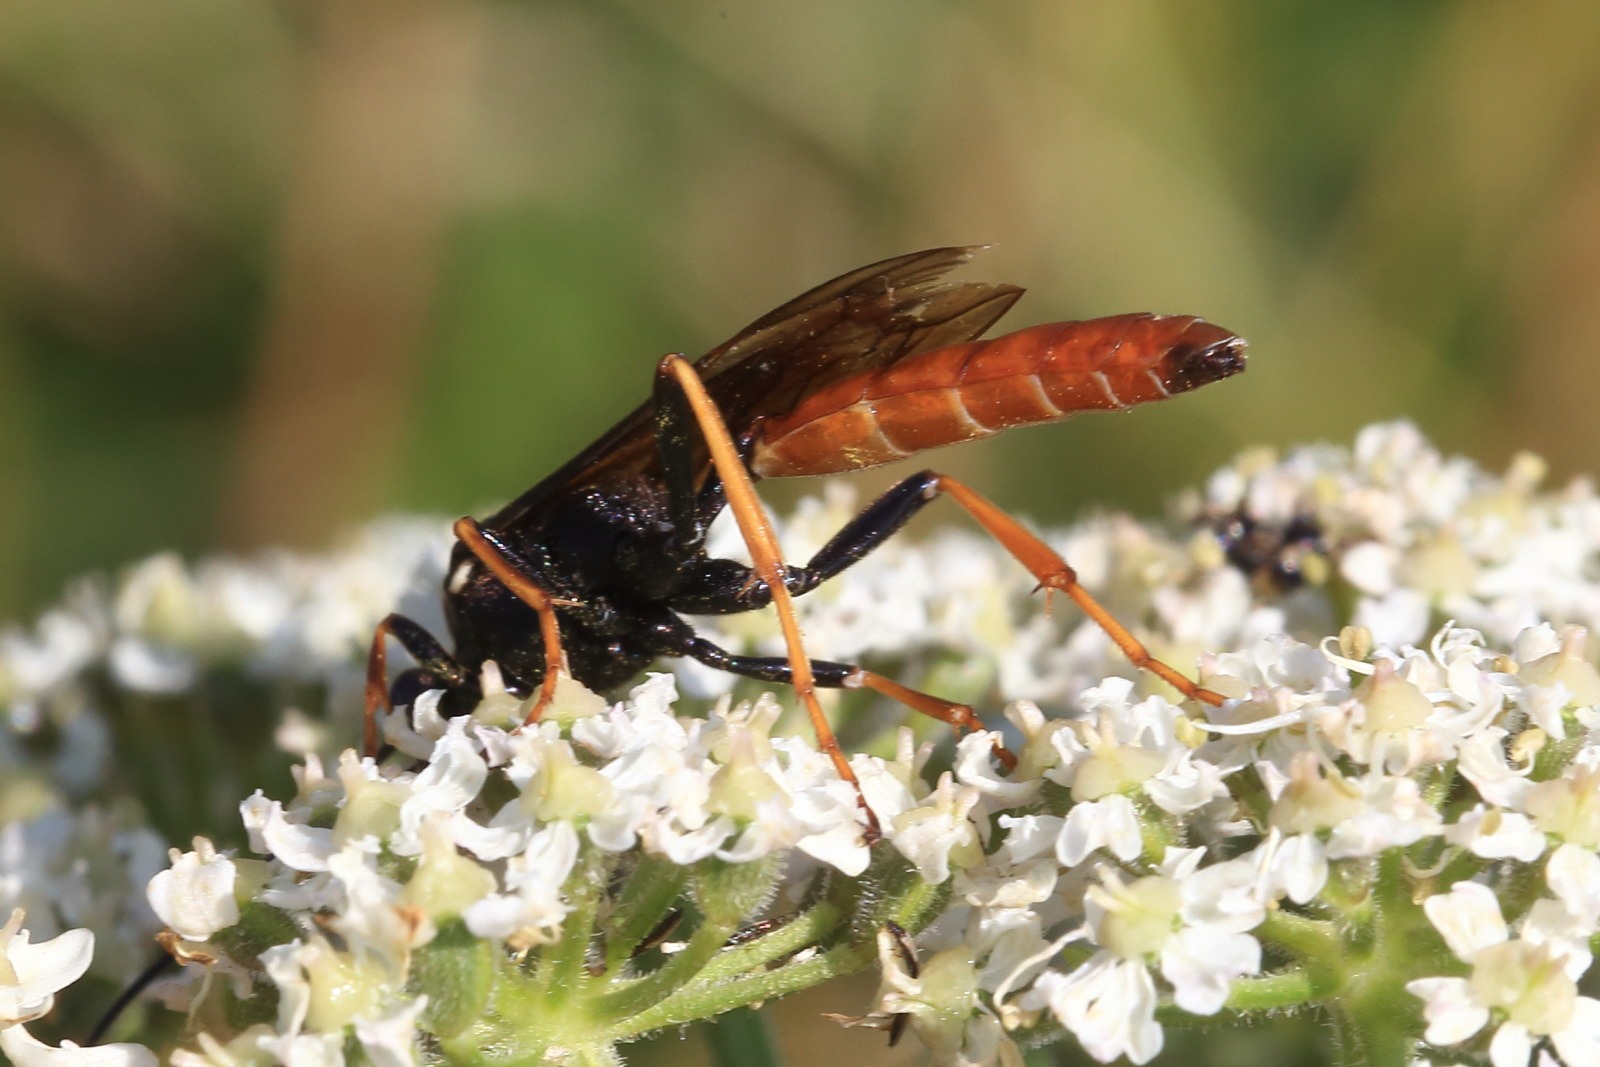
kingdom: Animalia
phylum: Arthropoda
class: Insecta
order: Hymenoptera
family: Ichneumonidae
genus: Amblyjoppa
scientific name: Amblyjoppa fuscipennis
